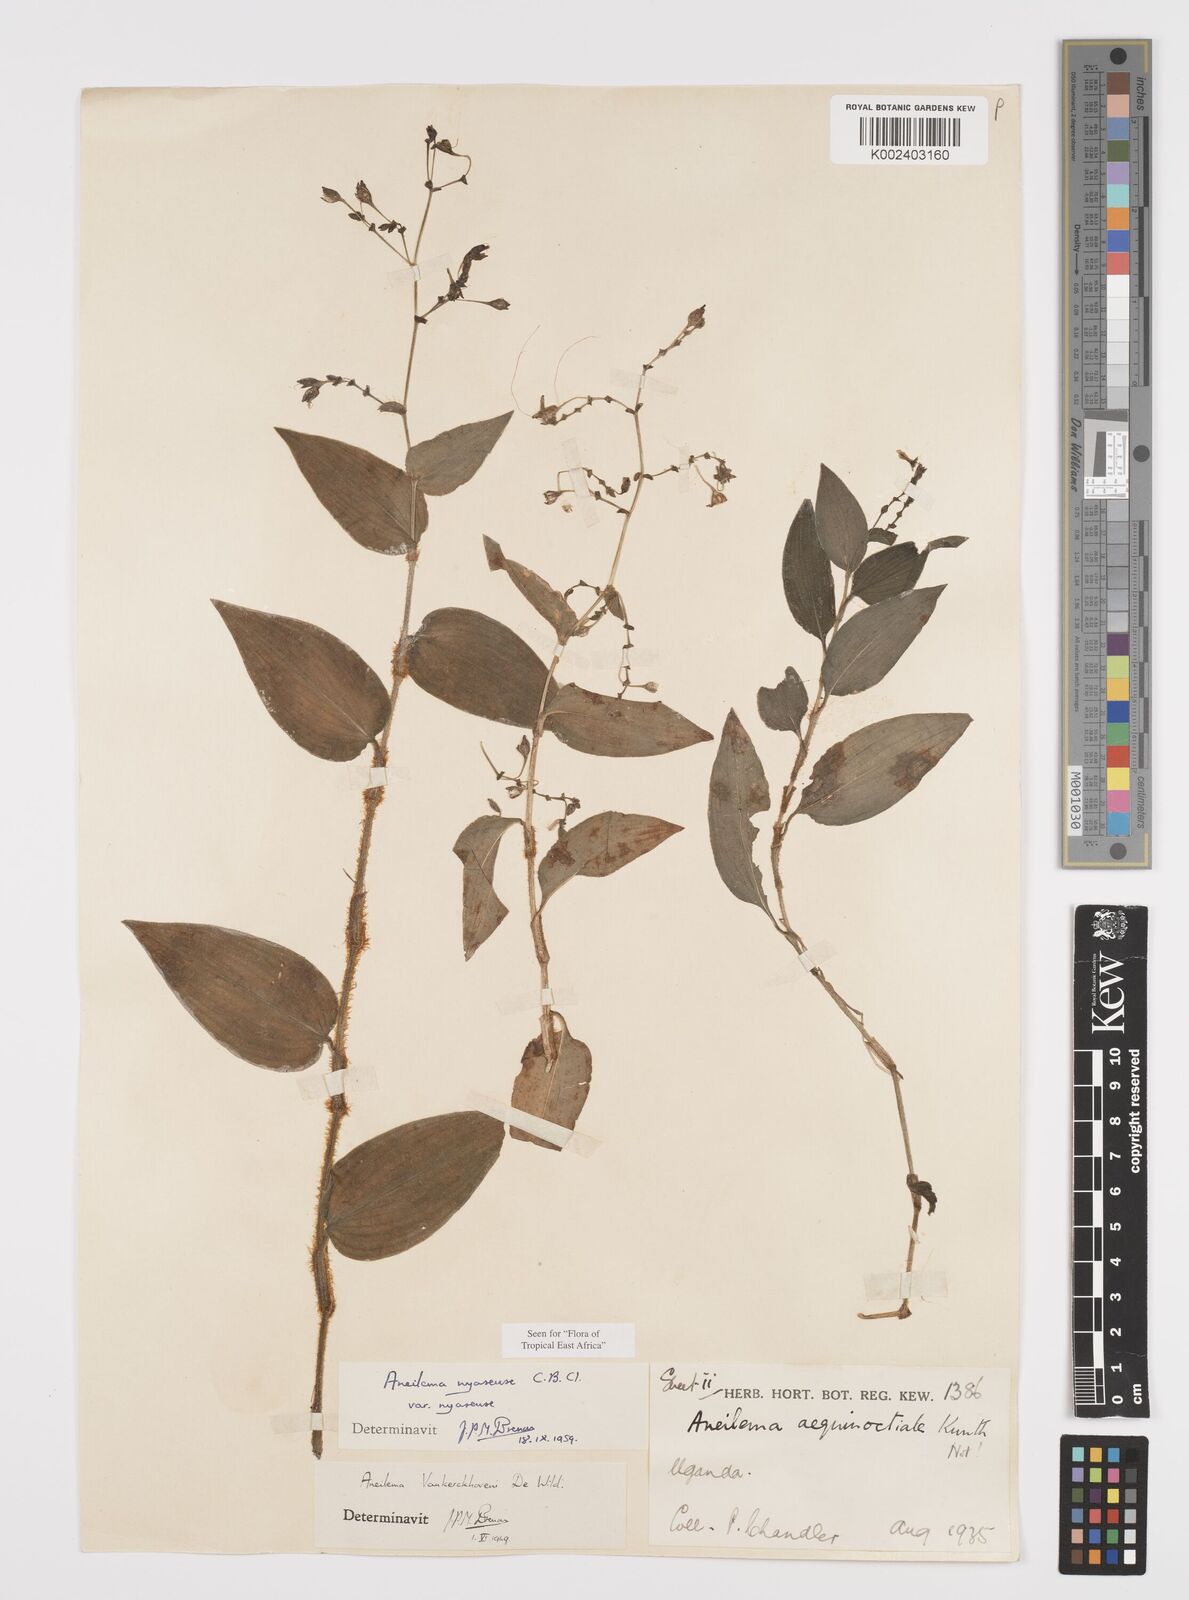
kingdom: Plantae
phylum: Tracheophyta
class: Liliopsida
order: Commelinales
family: Commelinaceae
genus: Aneilema
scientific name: Aneilema nyasense
